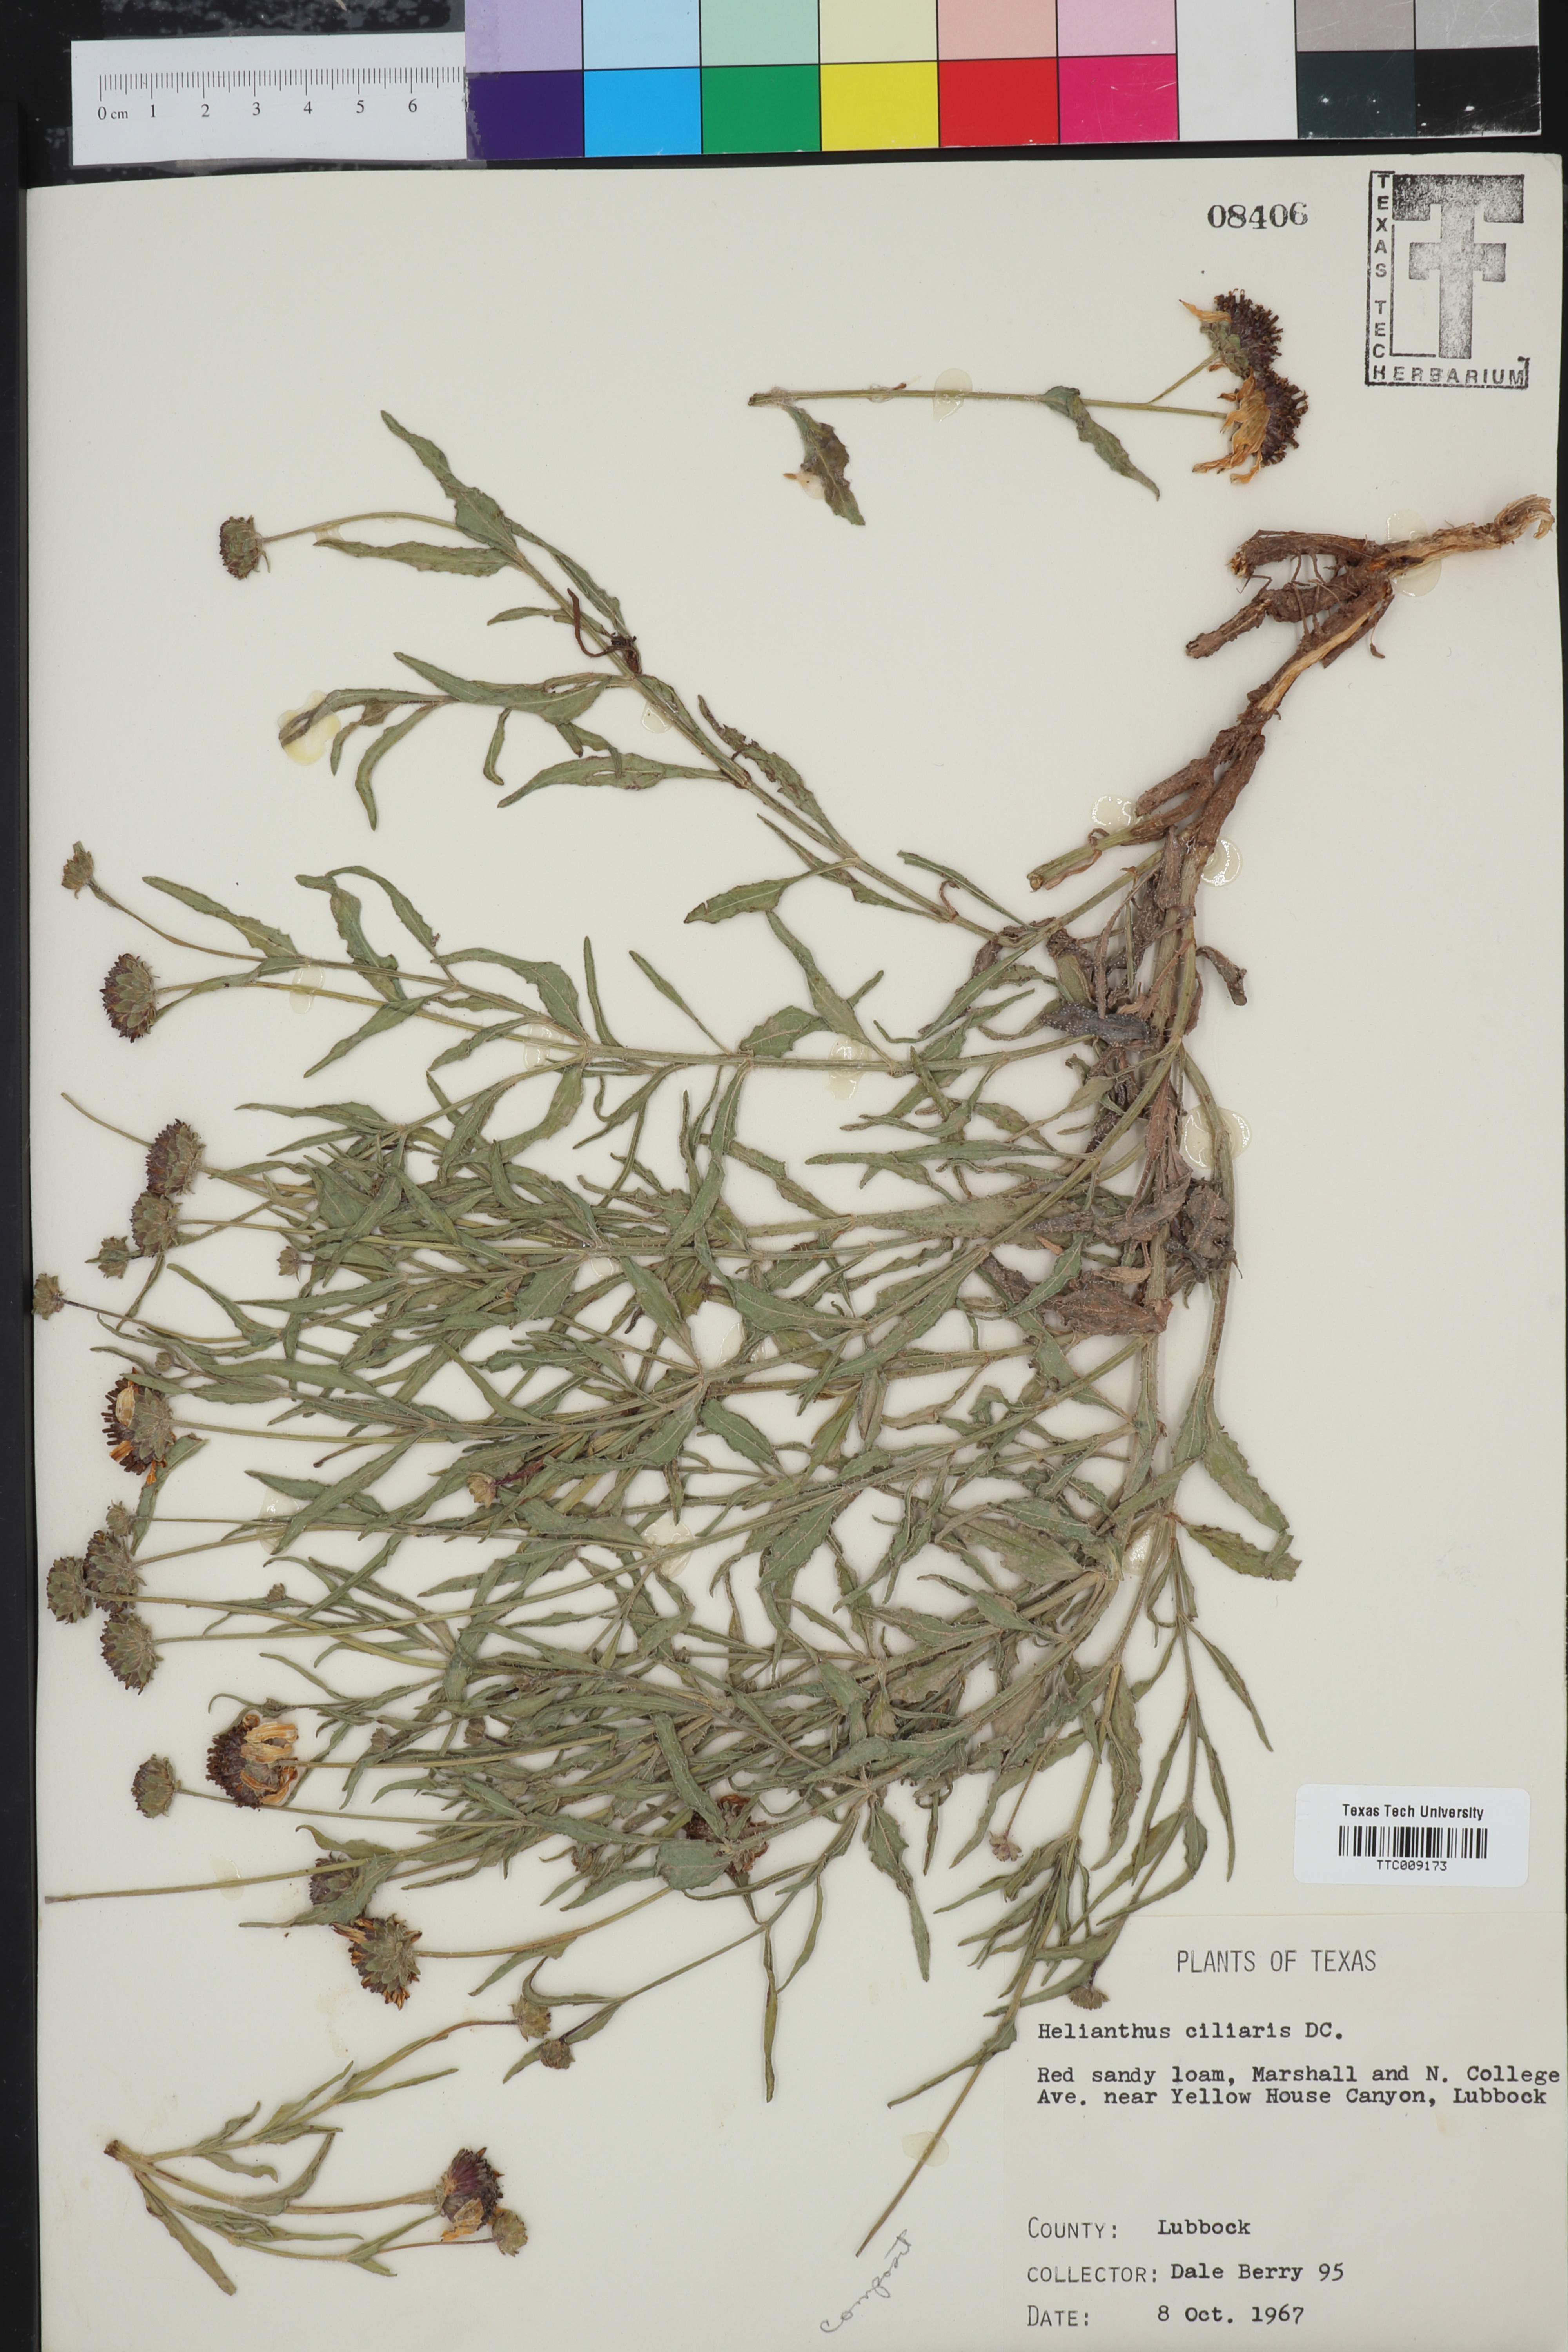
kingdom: Plantae
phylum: Tracheophyta
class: Magnoliopsida
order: Asterales
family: Asteraceae
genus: Helianthus
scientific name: Helianthus ciliaris
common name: Texas blueweed
